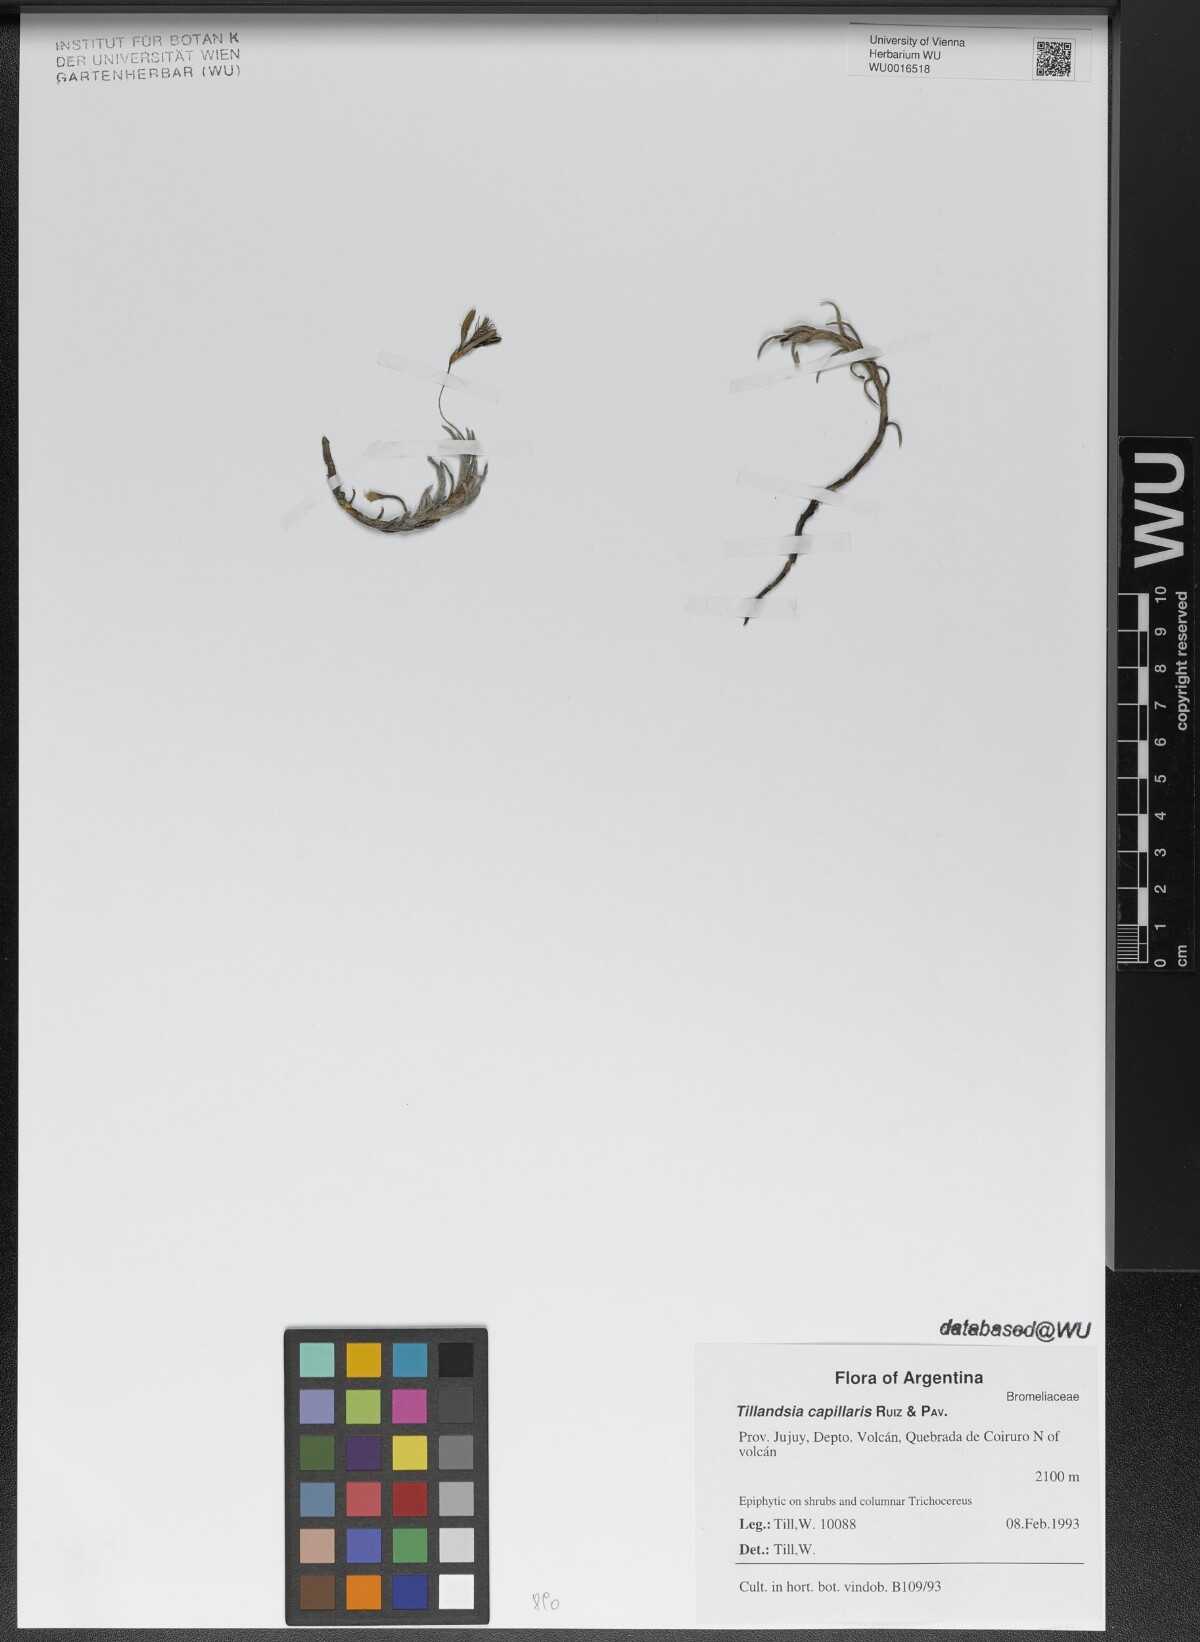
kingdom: Plantae
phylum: Tracheophyta
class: Liliopsida
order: Poales
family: Bromeliaceae
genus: Tillandsia
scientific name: Tillandsia capillaris
